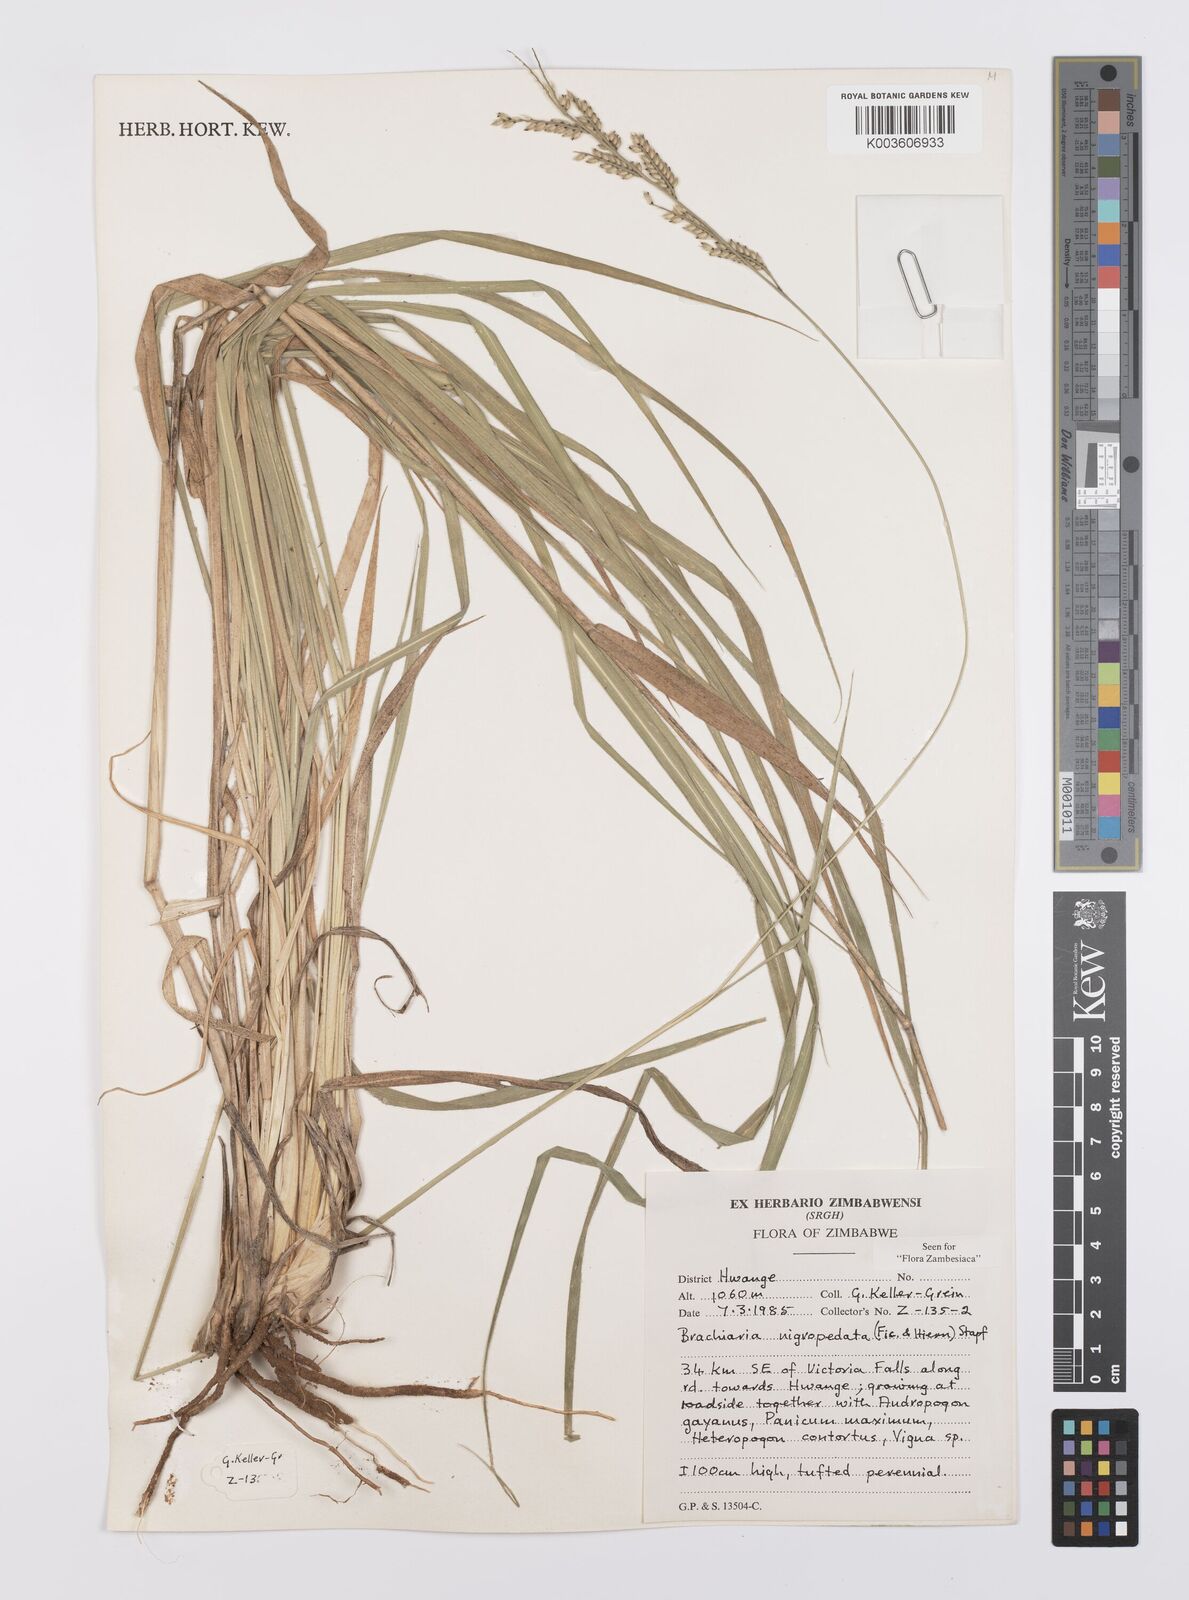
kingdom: Plantae
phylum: Tracheophyta
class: Liliopsida
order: Poales
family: Poaceae
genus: Urochloa
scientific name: Urochloa nigropedata
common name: Spotted signal grass
